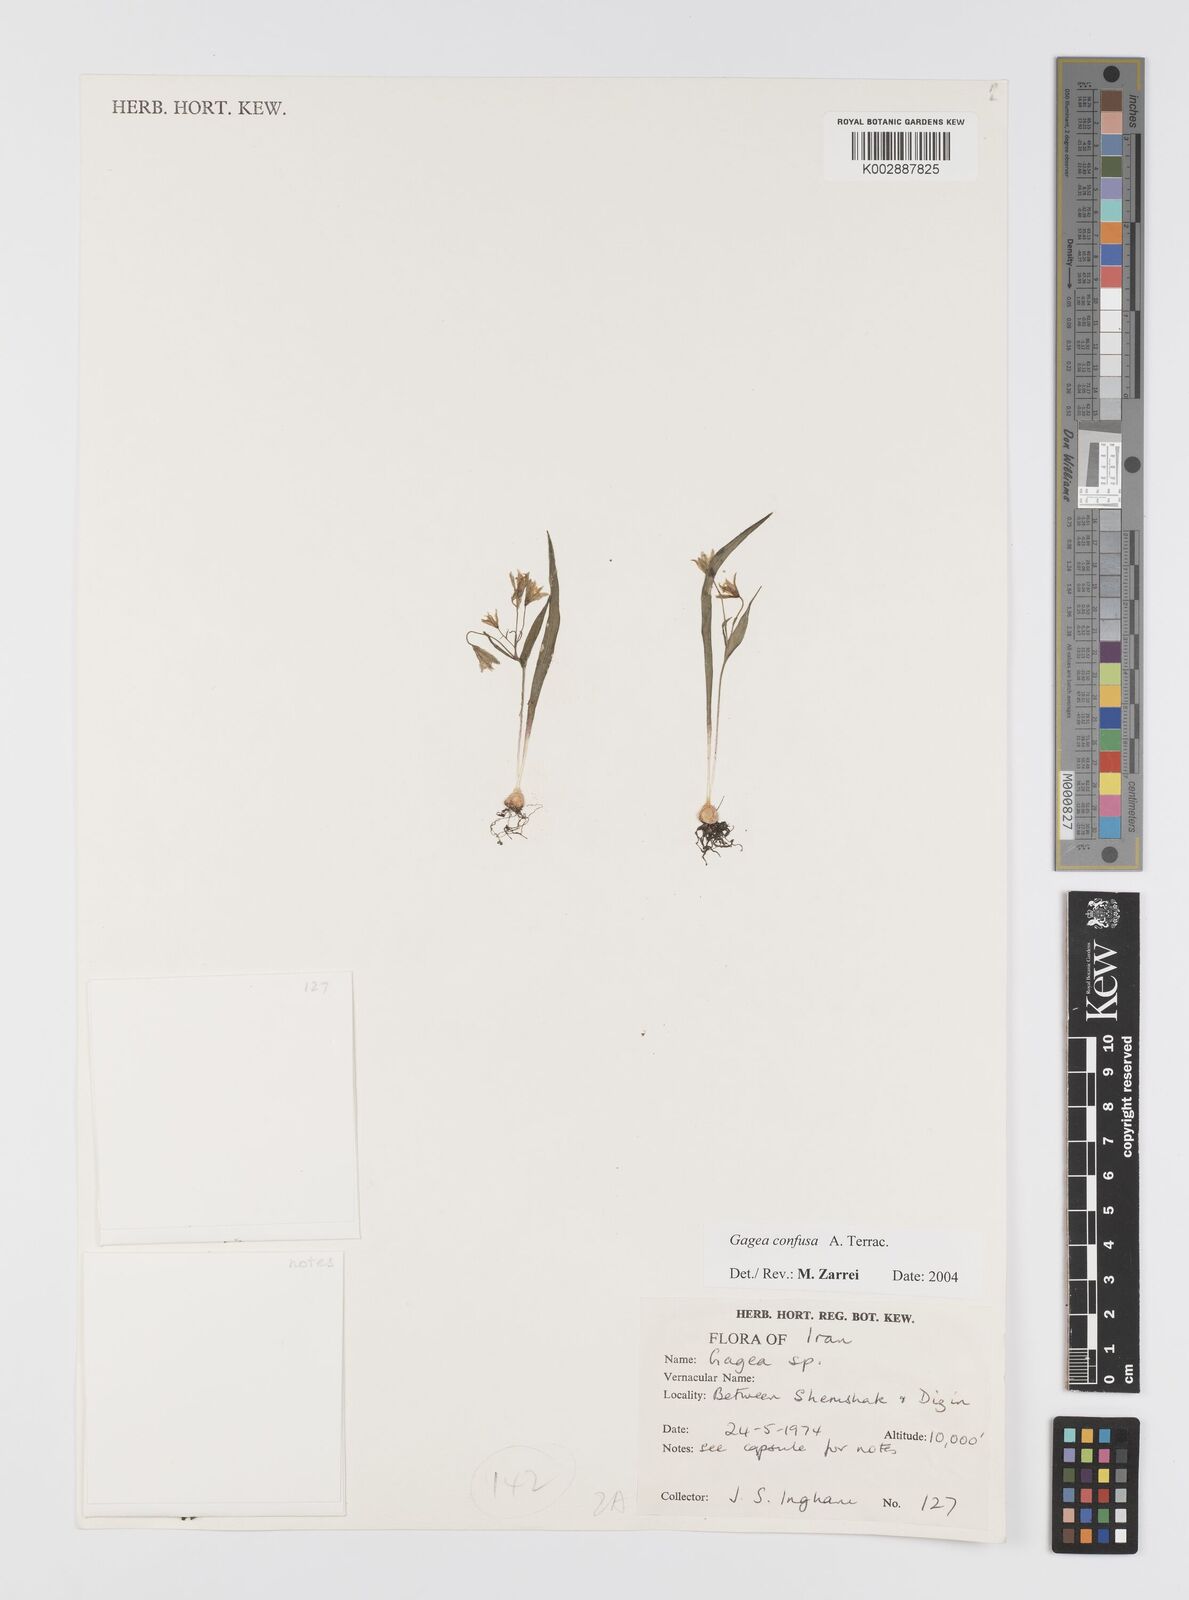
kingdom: Plantae
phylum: Tracheophyta
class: Liliopsida
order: Liliales
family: Liliaceae
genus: Gagea
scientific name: Gagea confusa
